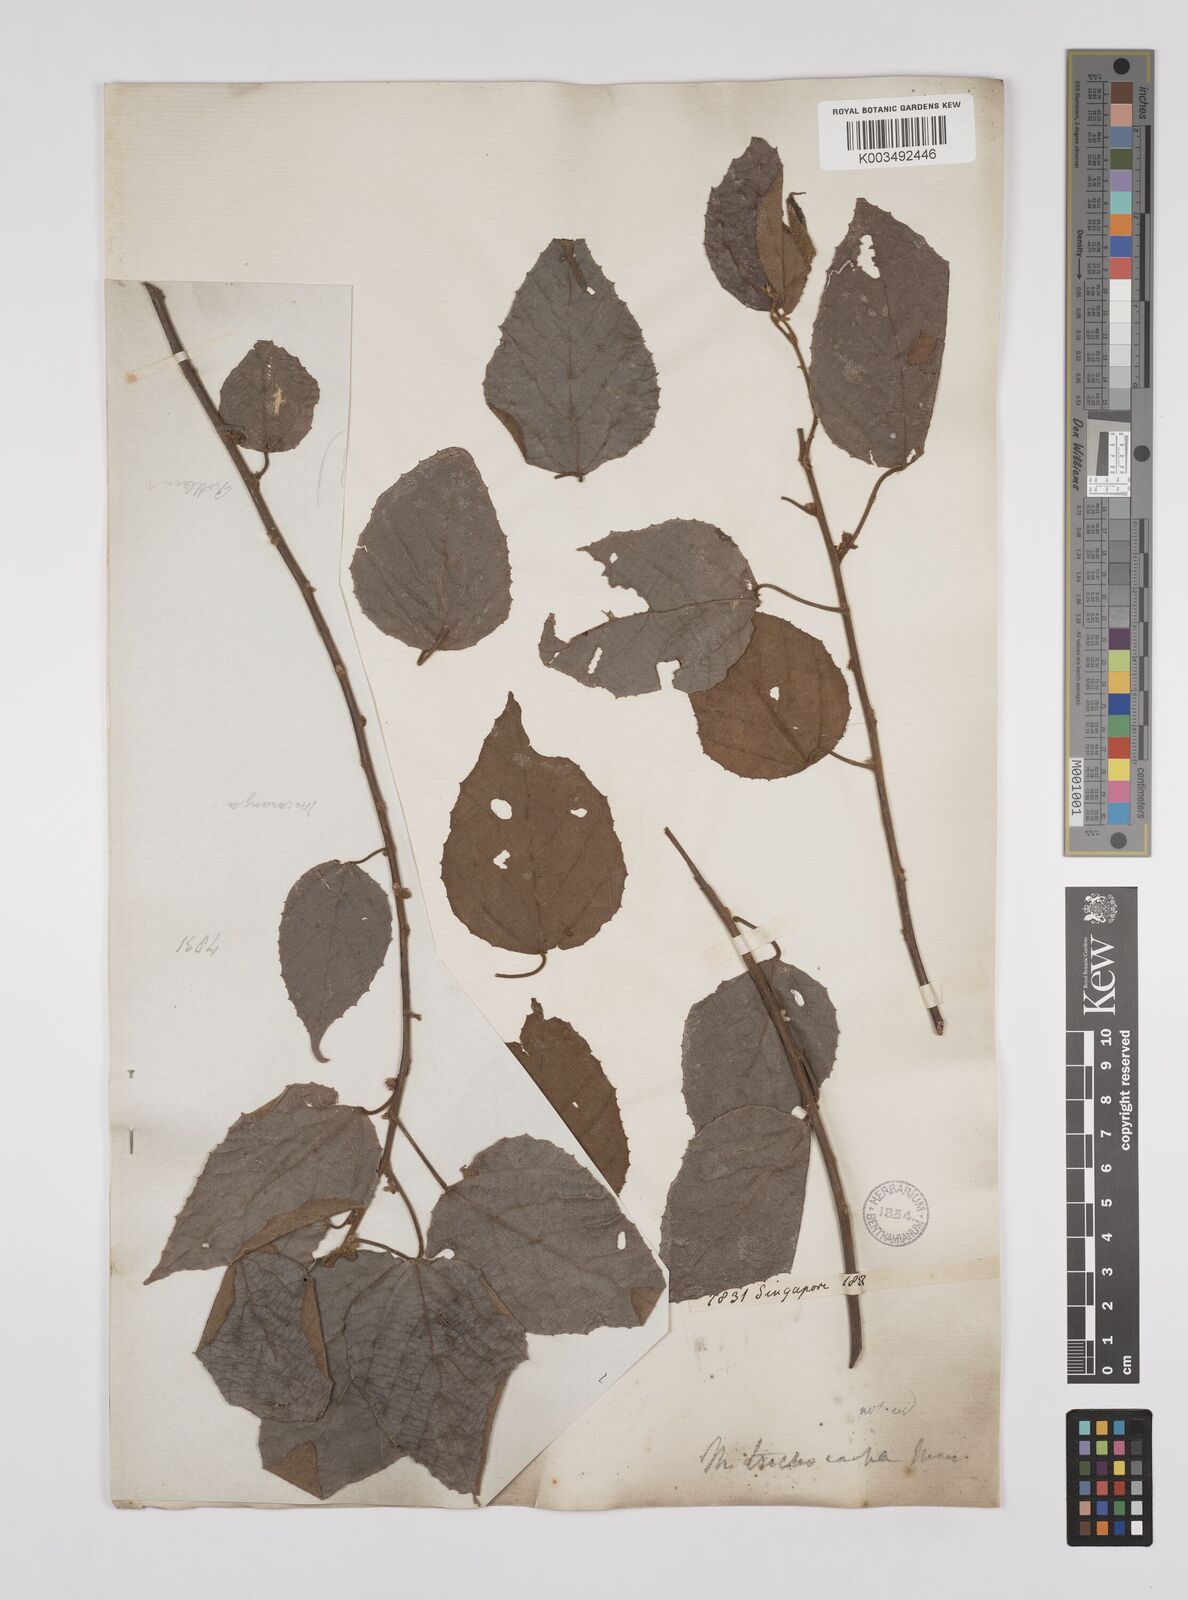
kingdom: Plantae
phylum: Tracheophyta
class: Magnoliopsida
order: Malpighiales
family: Euphorbiaceae
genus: Macaranga
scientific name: Macaranga trichocarpa
